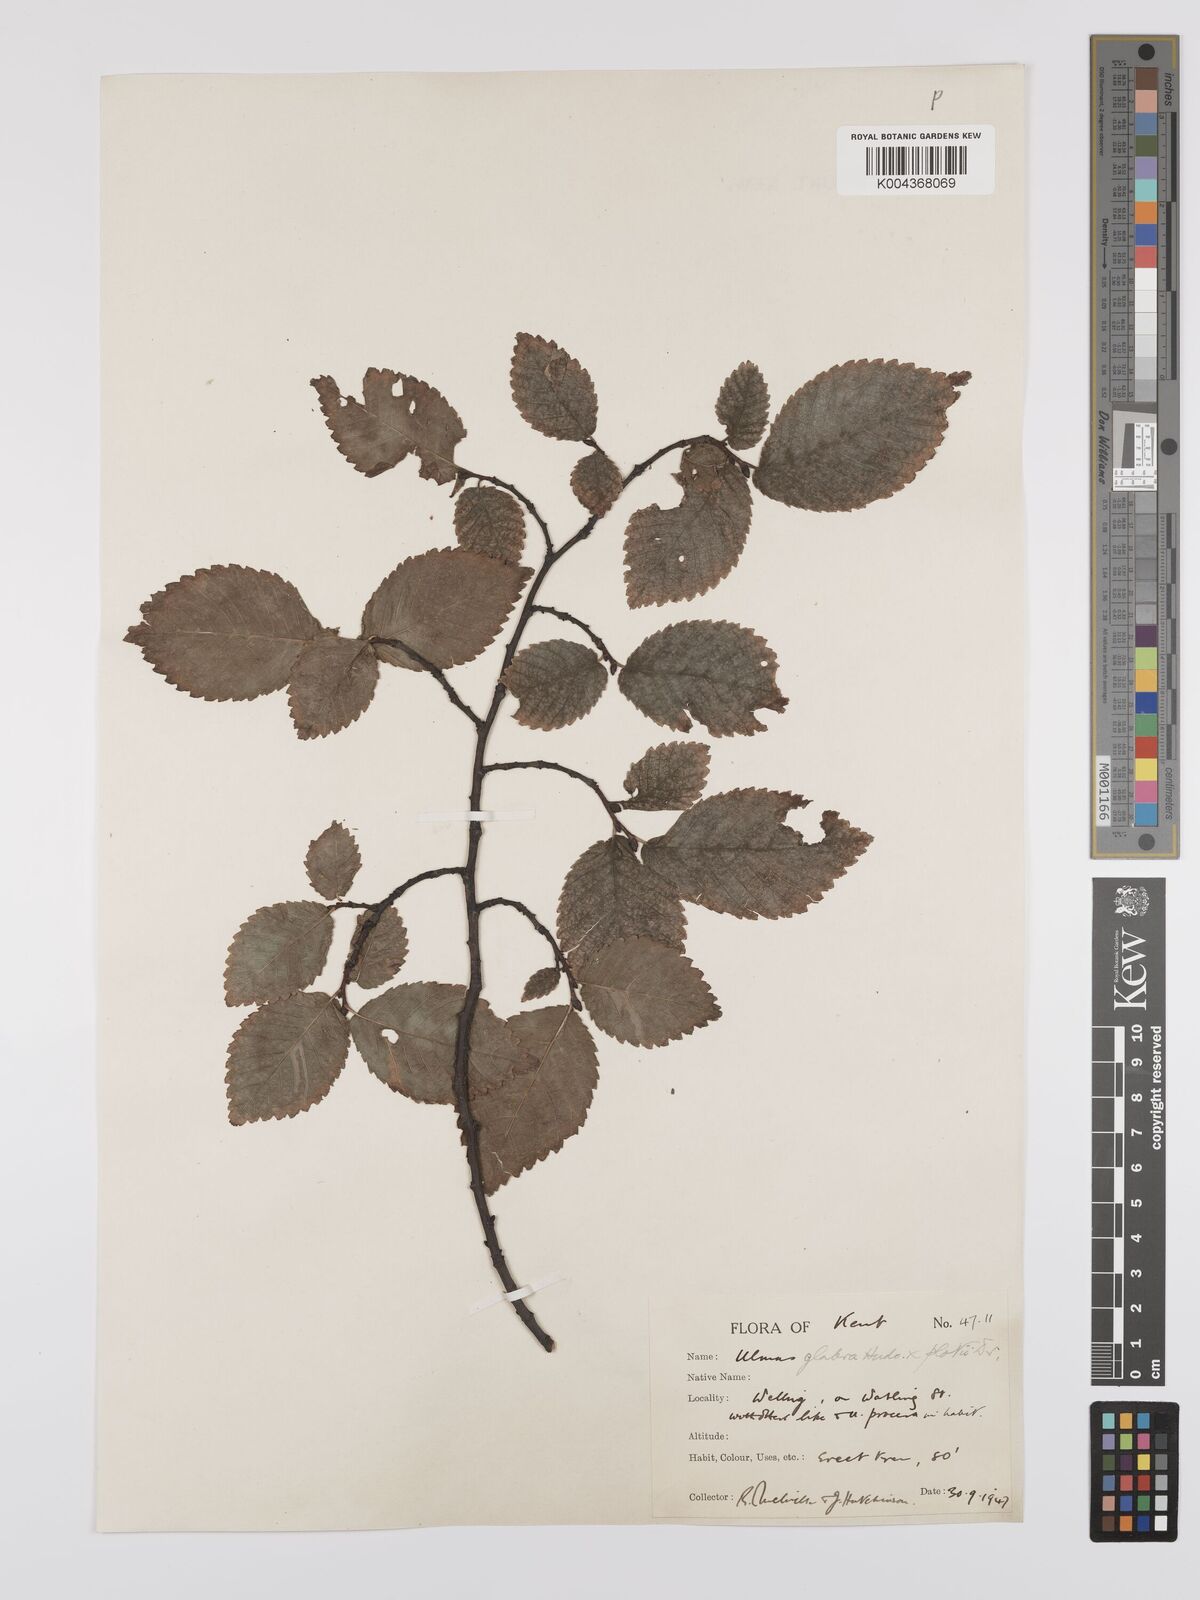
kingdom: Plantae
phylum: Tracheophyta
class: Magnoliopsida
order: Rosales
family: Ulmaceae
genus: Ulmus
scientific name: Ulmus
